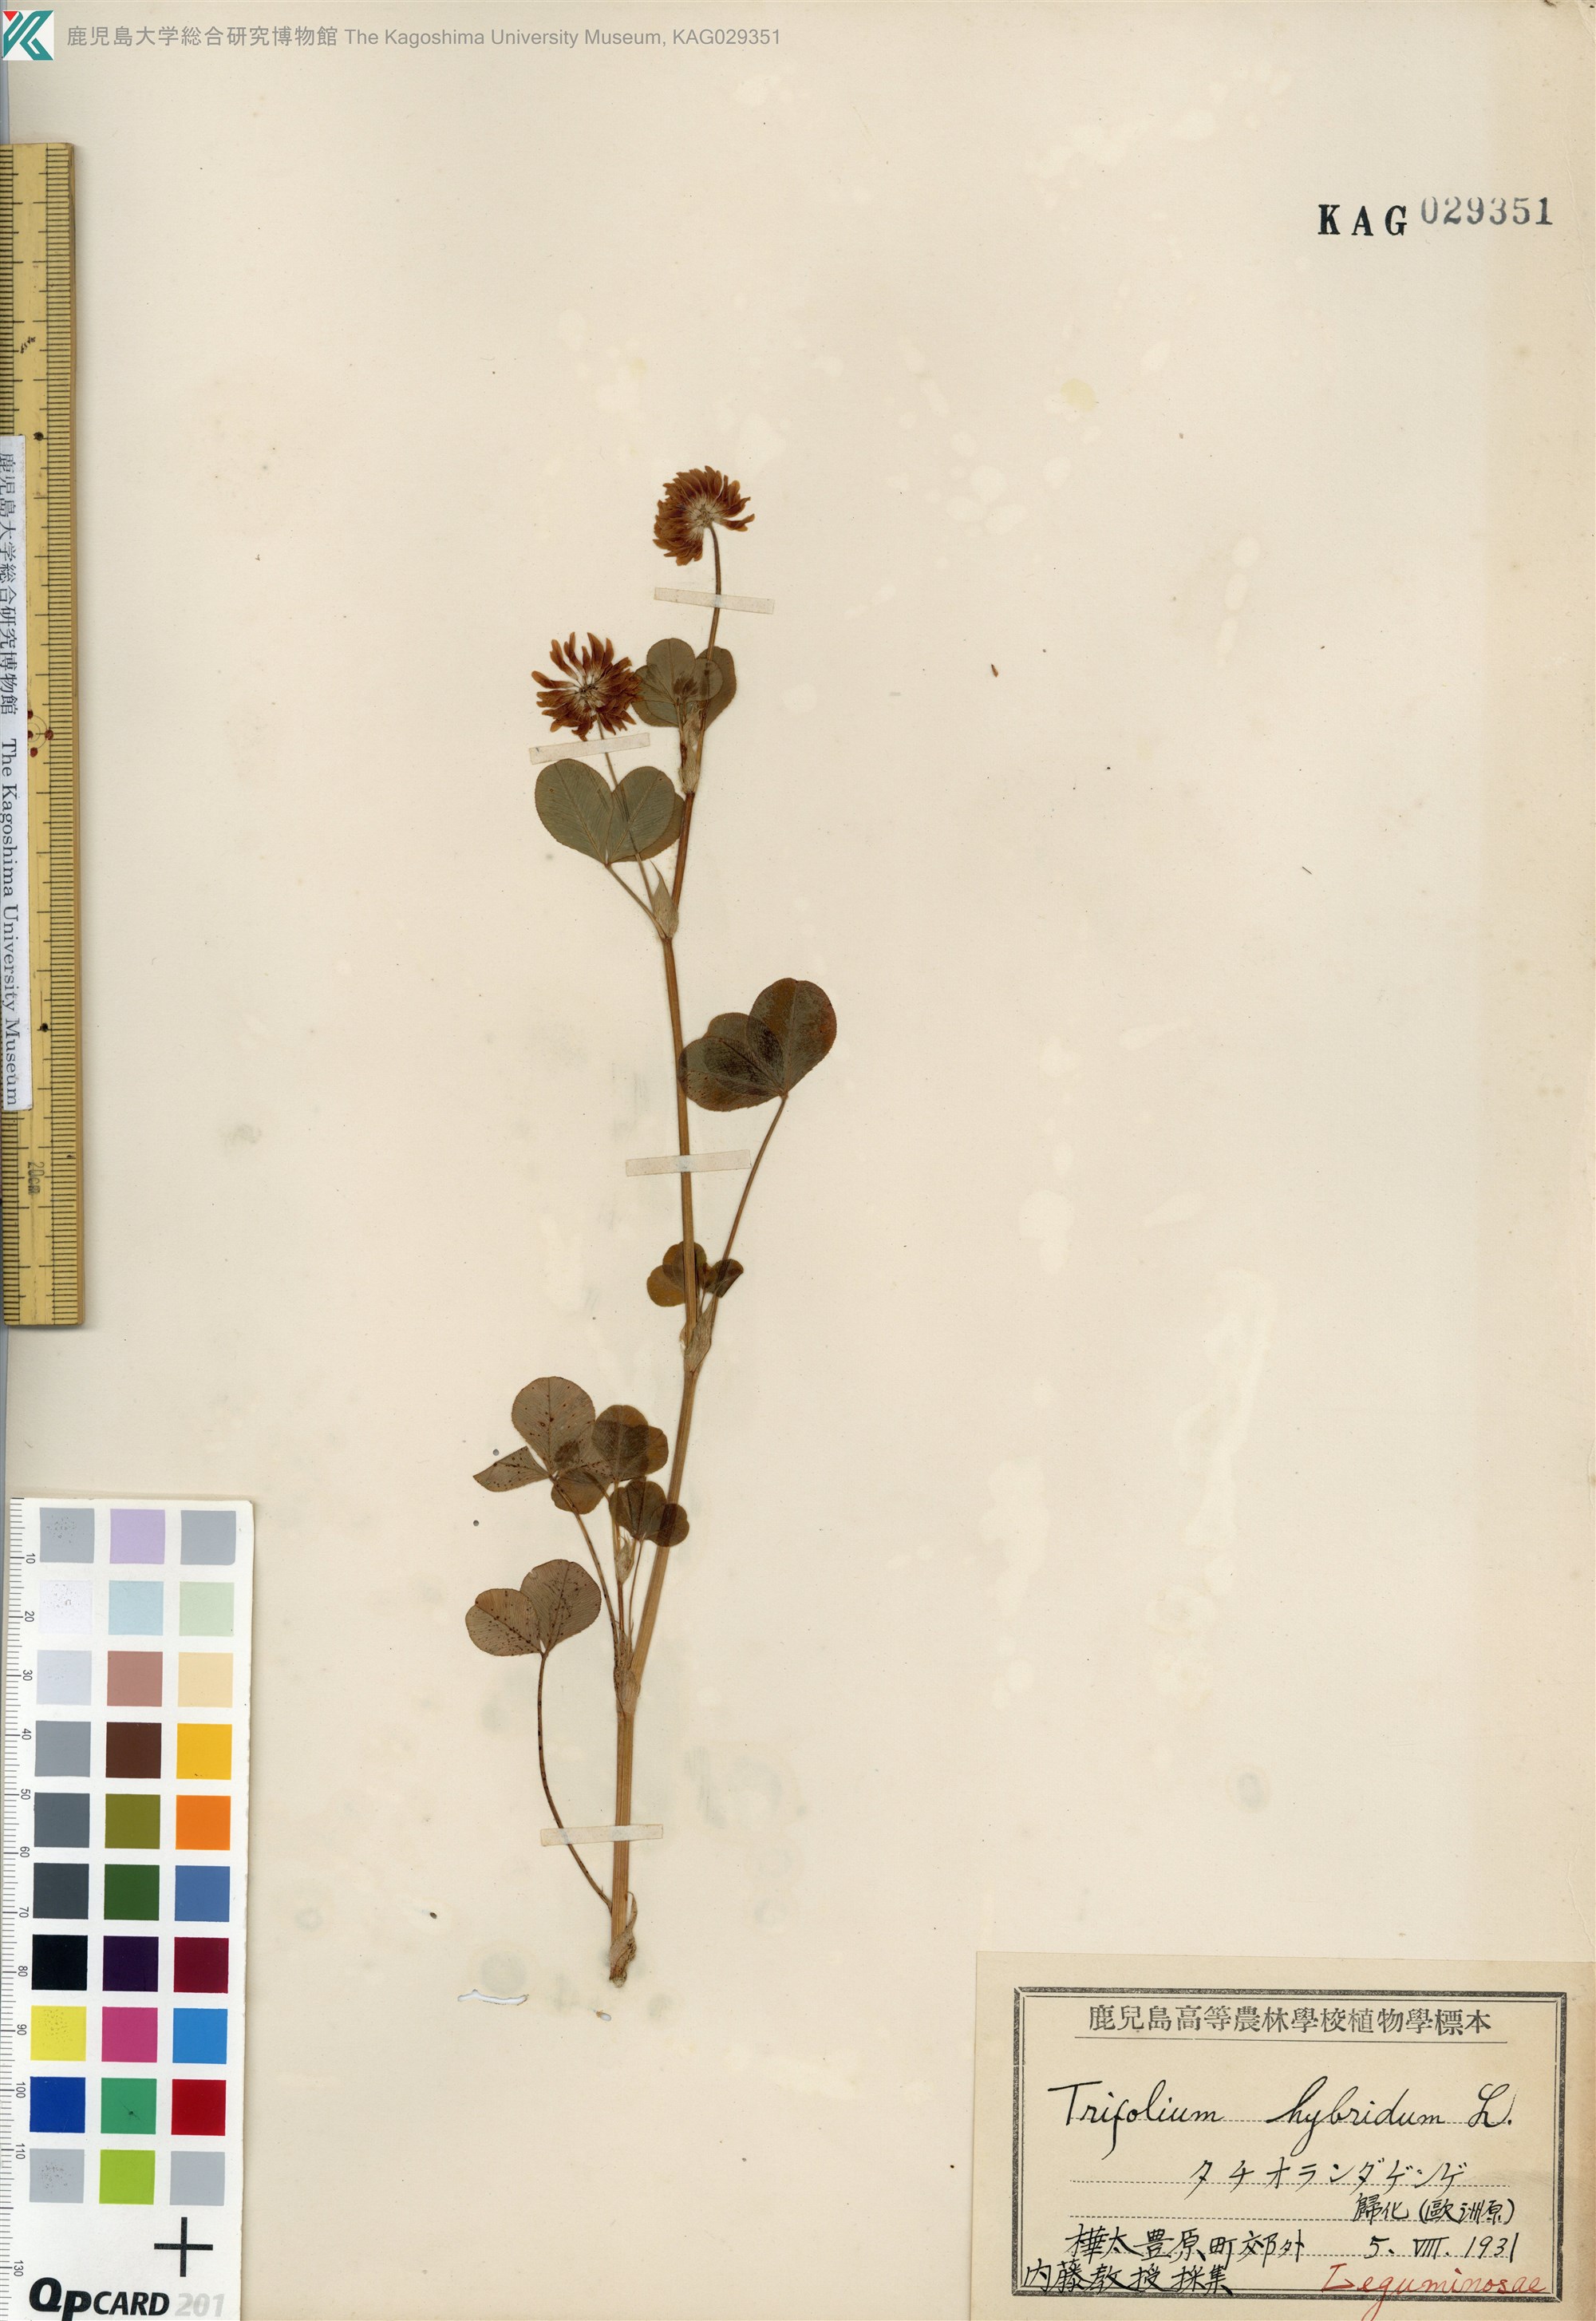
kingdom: Plantae
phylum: Tracheophyta
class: Magnoliopsida
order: Fabales
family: Fabaceae
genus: Trifolium
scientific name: Trifolium hybridum
